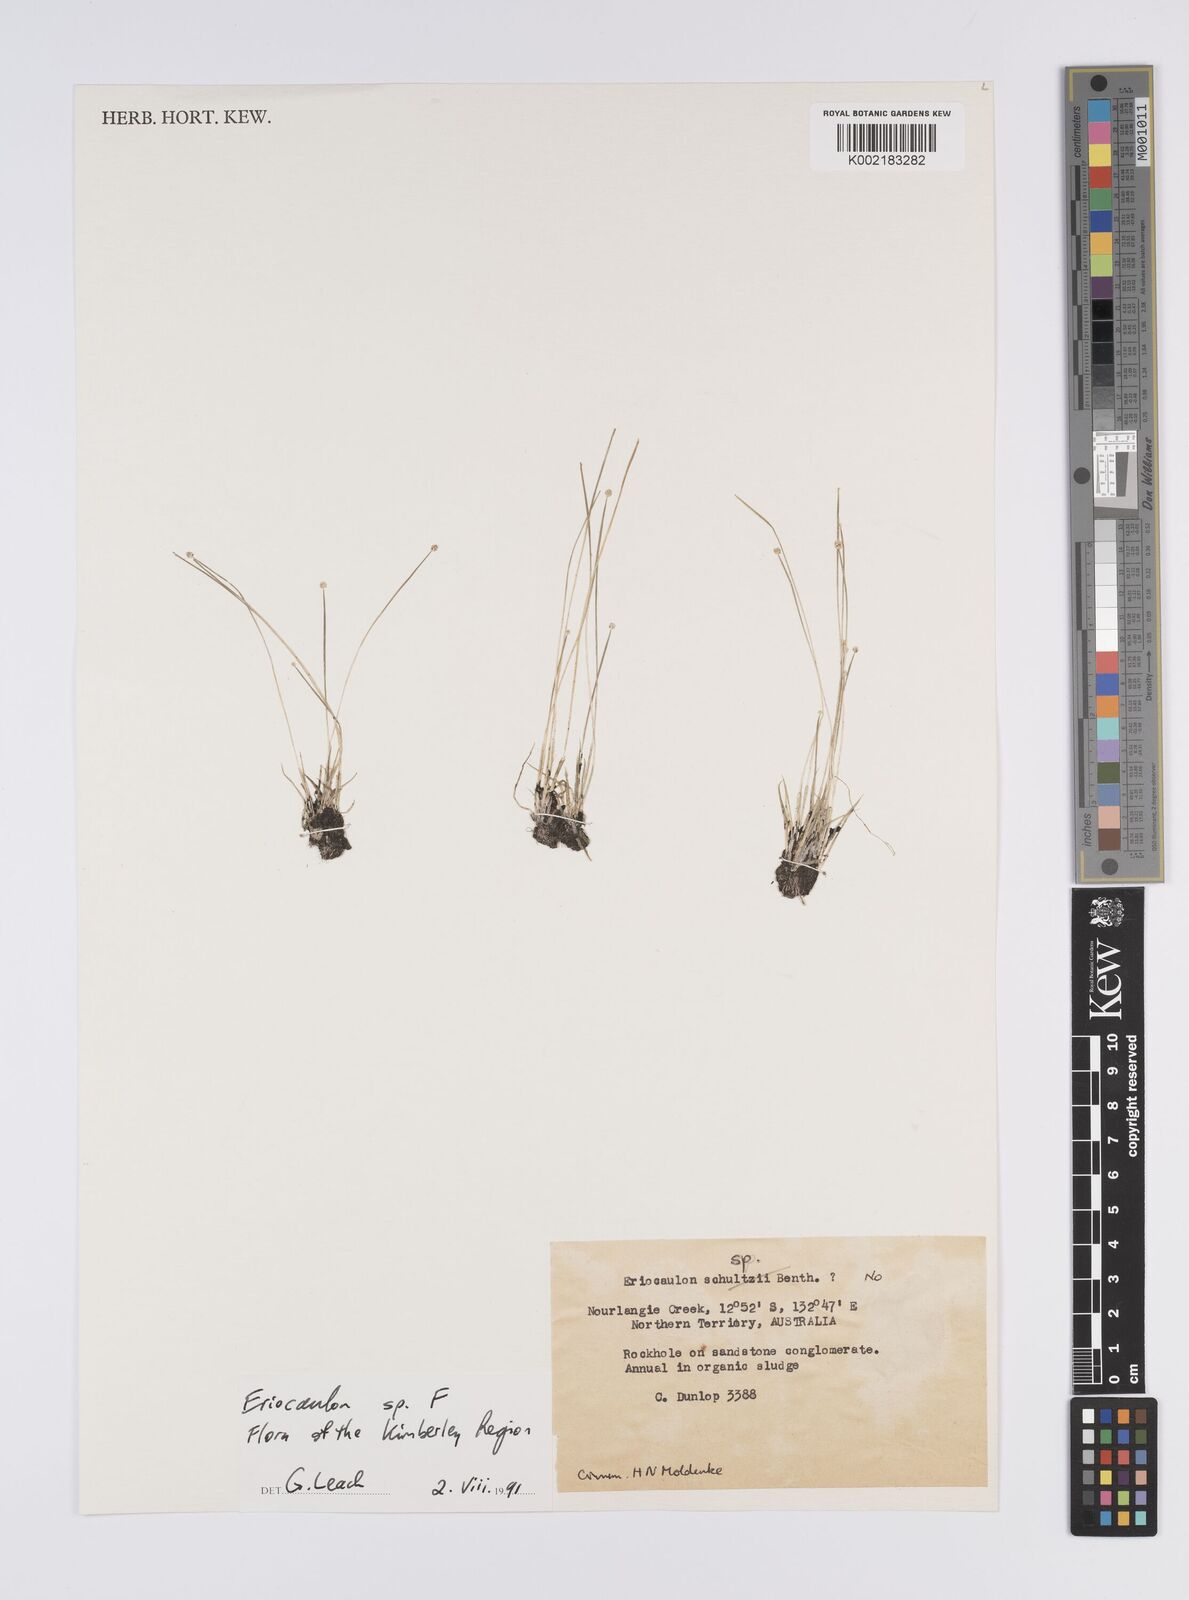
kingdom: Plantae
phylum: Tracheophyta
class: Liliopsida
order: Poales
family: Eriocaulaceae
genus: Eriocaulon
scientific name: Eriocaulon
